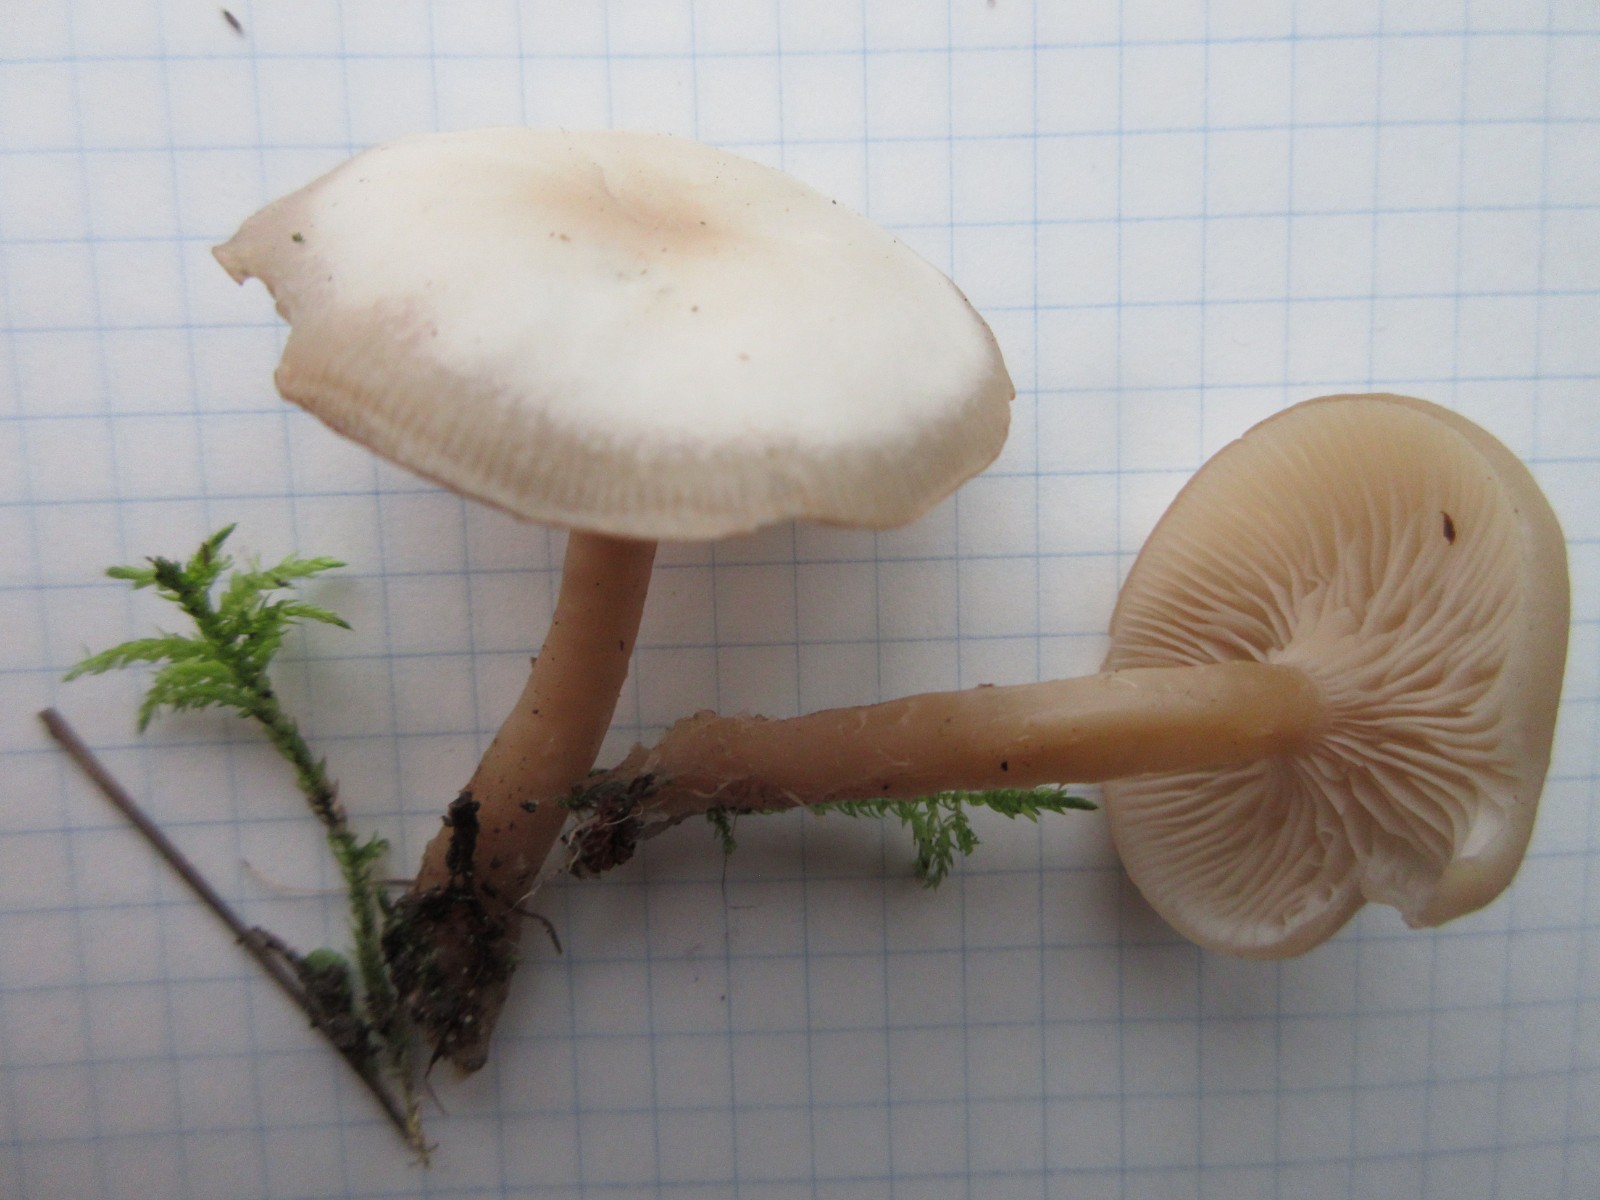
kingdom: Fungi
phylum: Basidiomycota
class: Agaricomycetes
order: Agaricales
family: Tricholomataceae
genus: Clitocybe
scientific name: Clitocybe fragrans
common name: vellugtende tragthat
